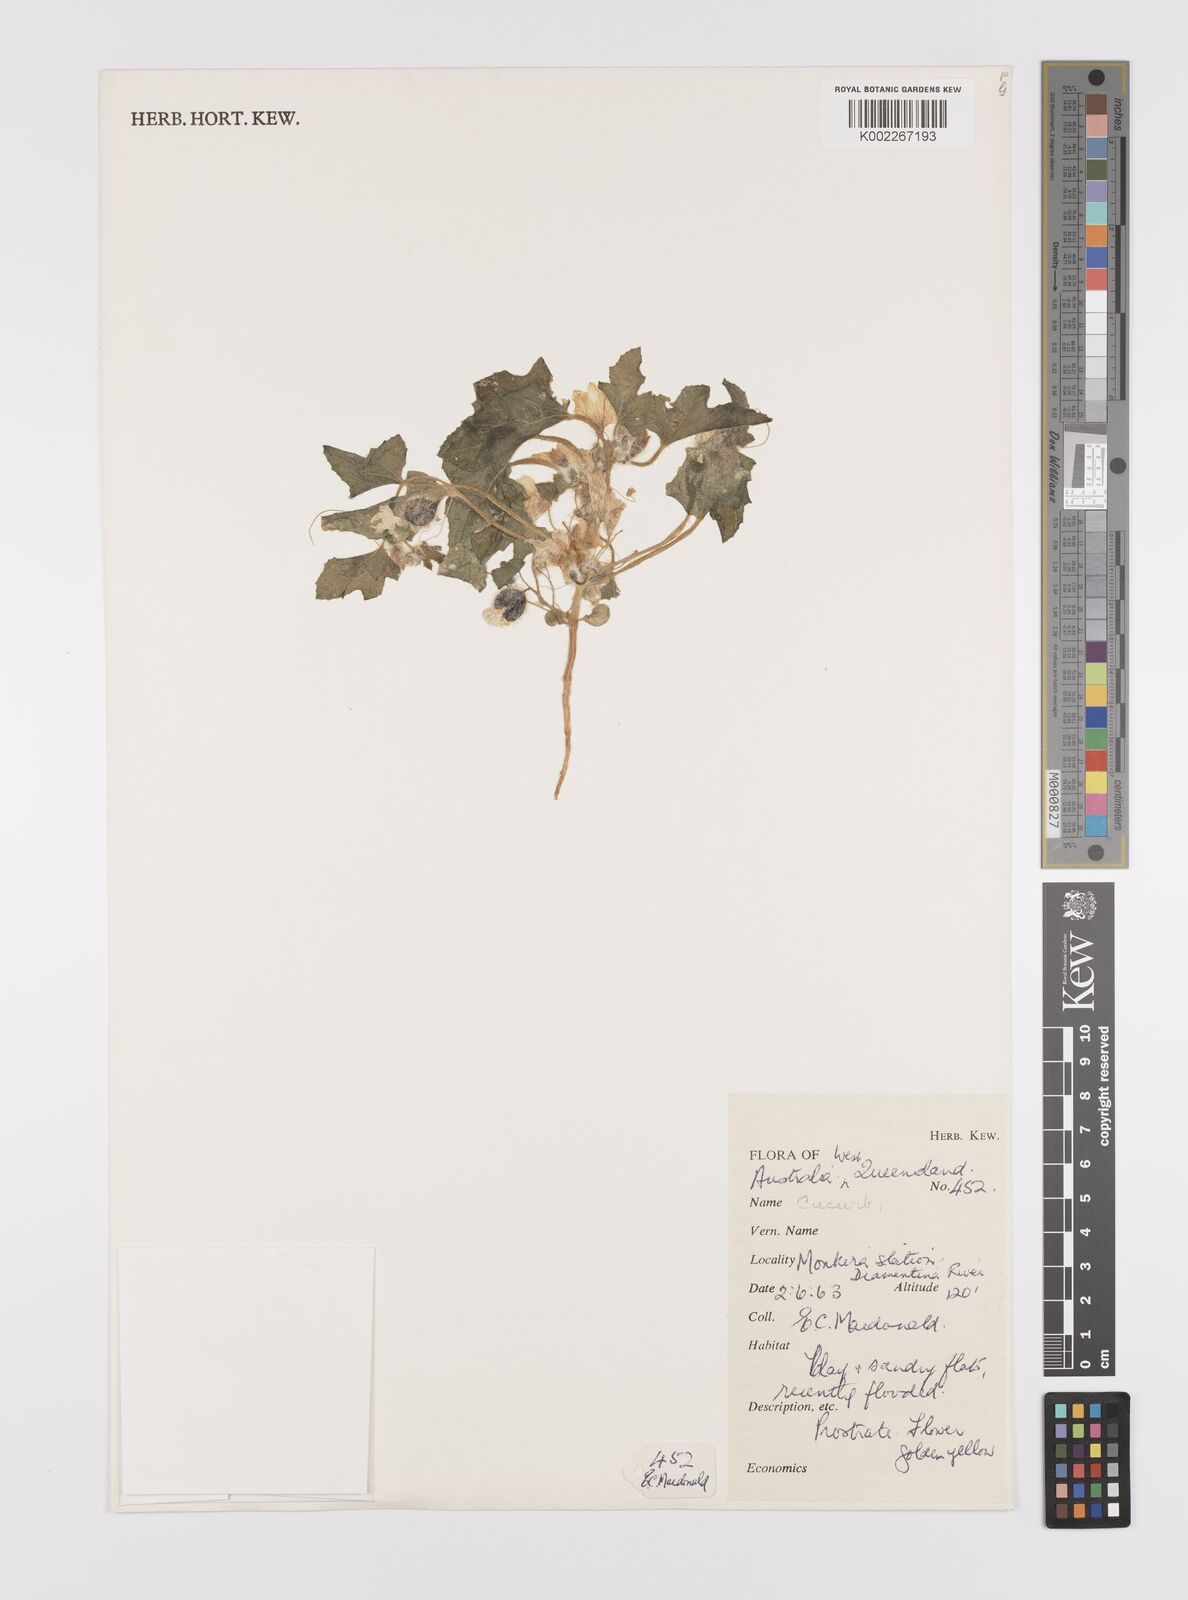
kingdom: Plantae
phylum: Tracheophyta
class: Magnoliopsida
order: Cucurbitales
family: Cucurbitaceae
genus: Cucumis
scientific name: Cucumis melo
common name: Melon
